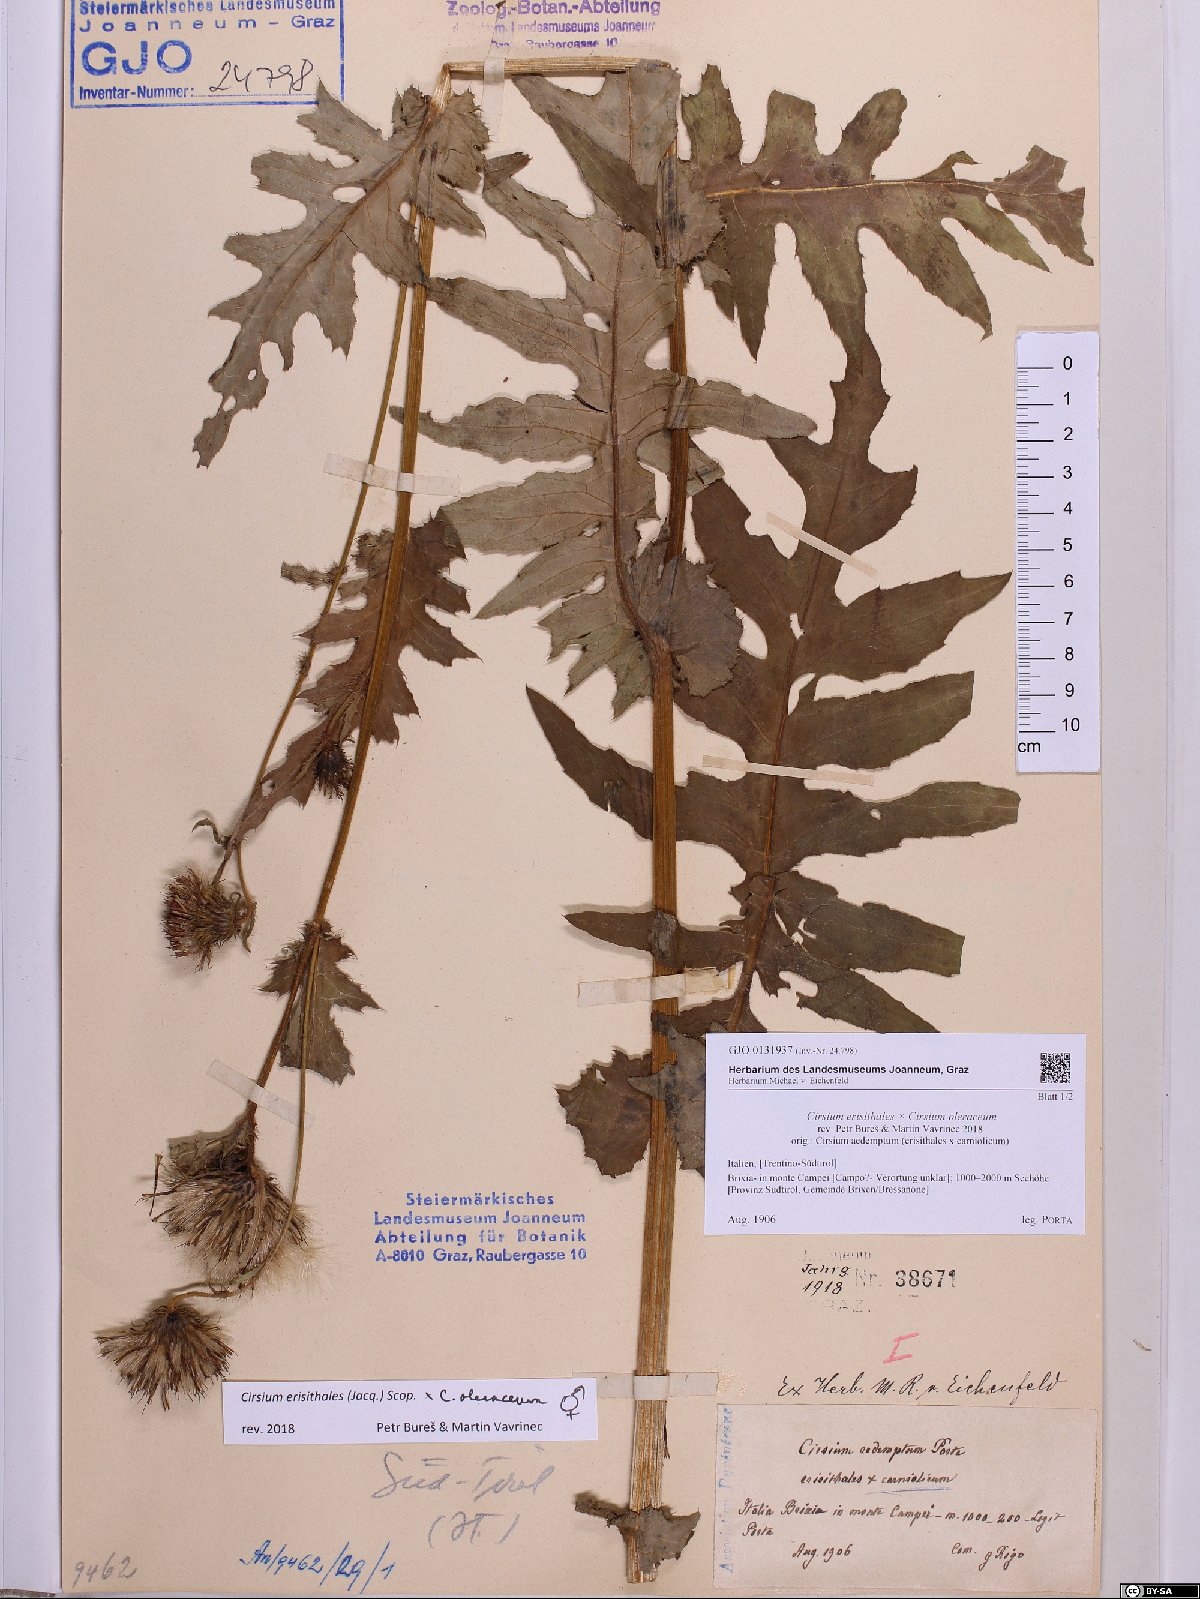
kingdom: Plantae
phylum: Tracheophyta
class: Magnoliopsida
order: Asterales
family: Asteraceae
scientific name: Asteraceae
